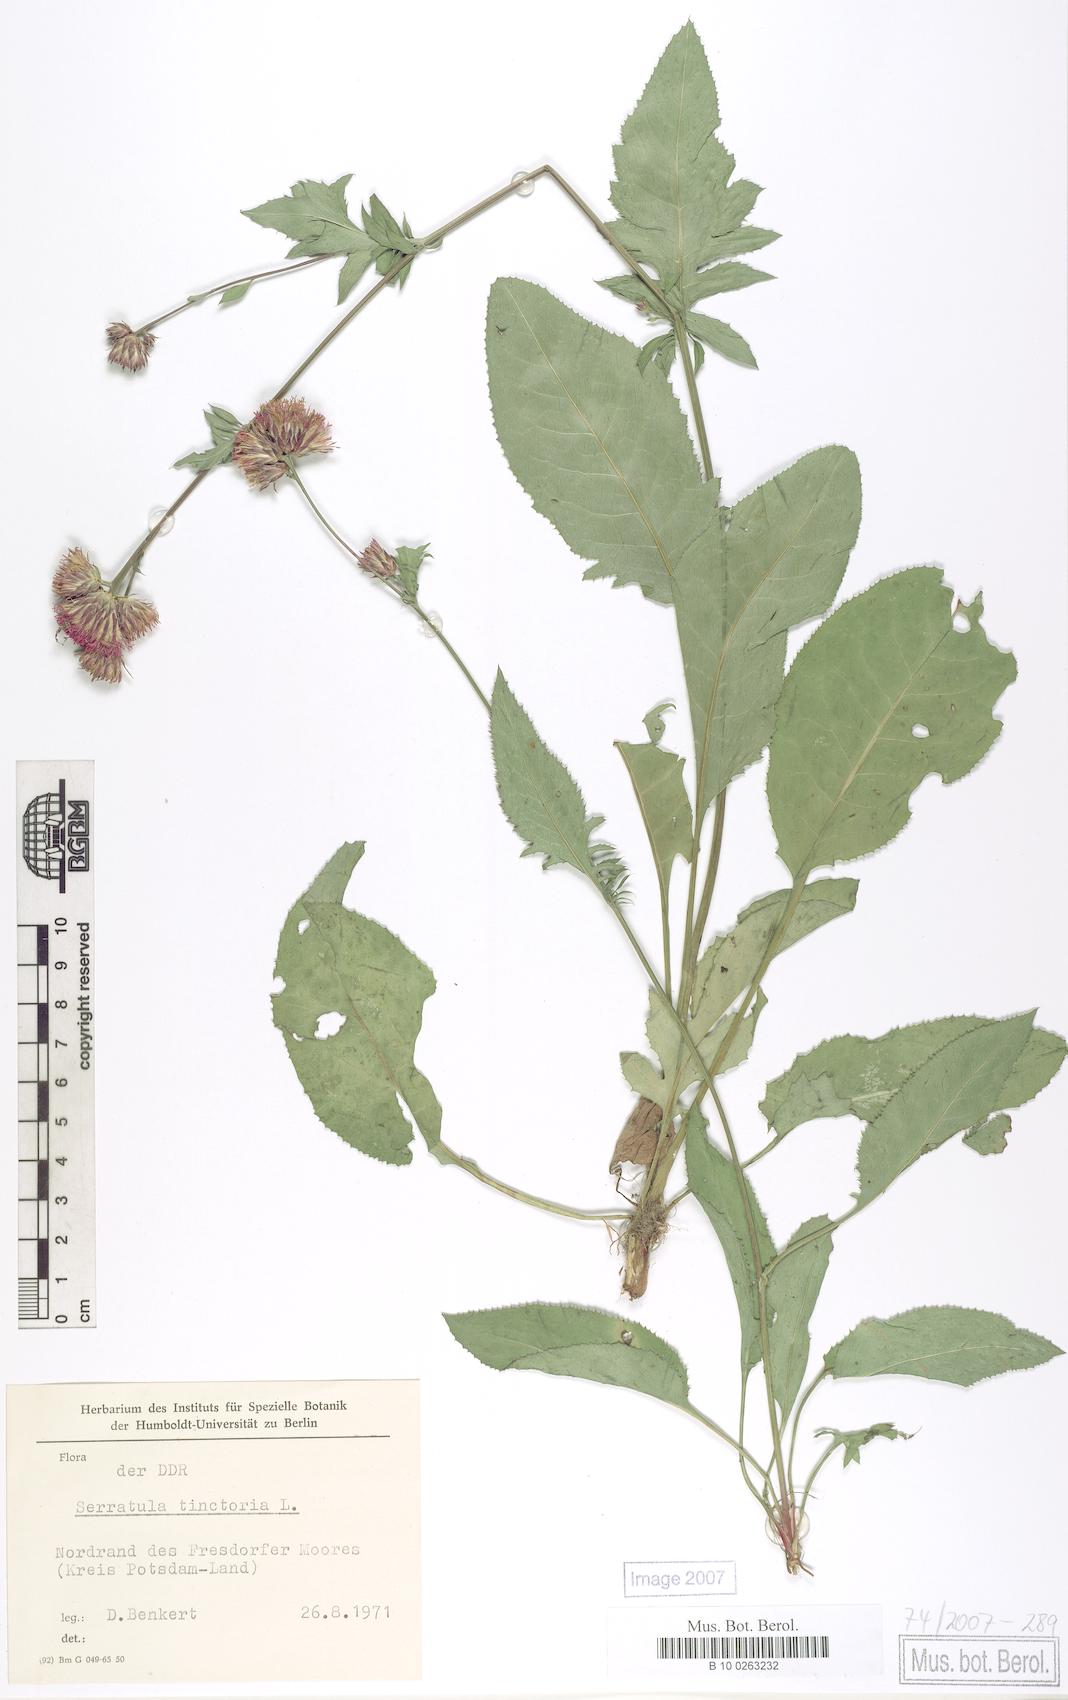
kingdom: Plantae
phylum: Tracheophyta
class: Magnoliopsida
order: Asterales
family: Asteraceae
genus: Serratula
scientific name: Serratula tinctoria
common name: Saw-wort
